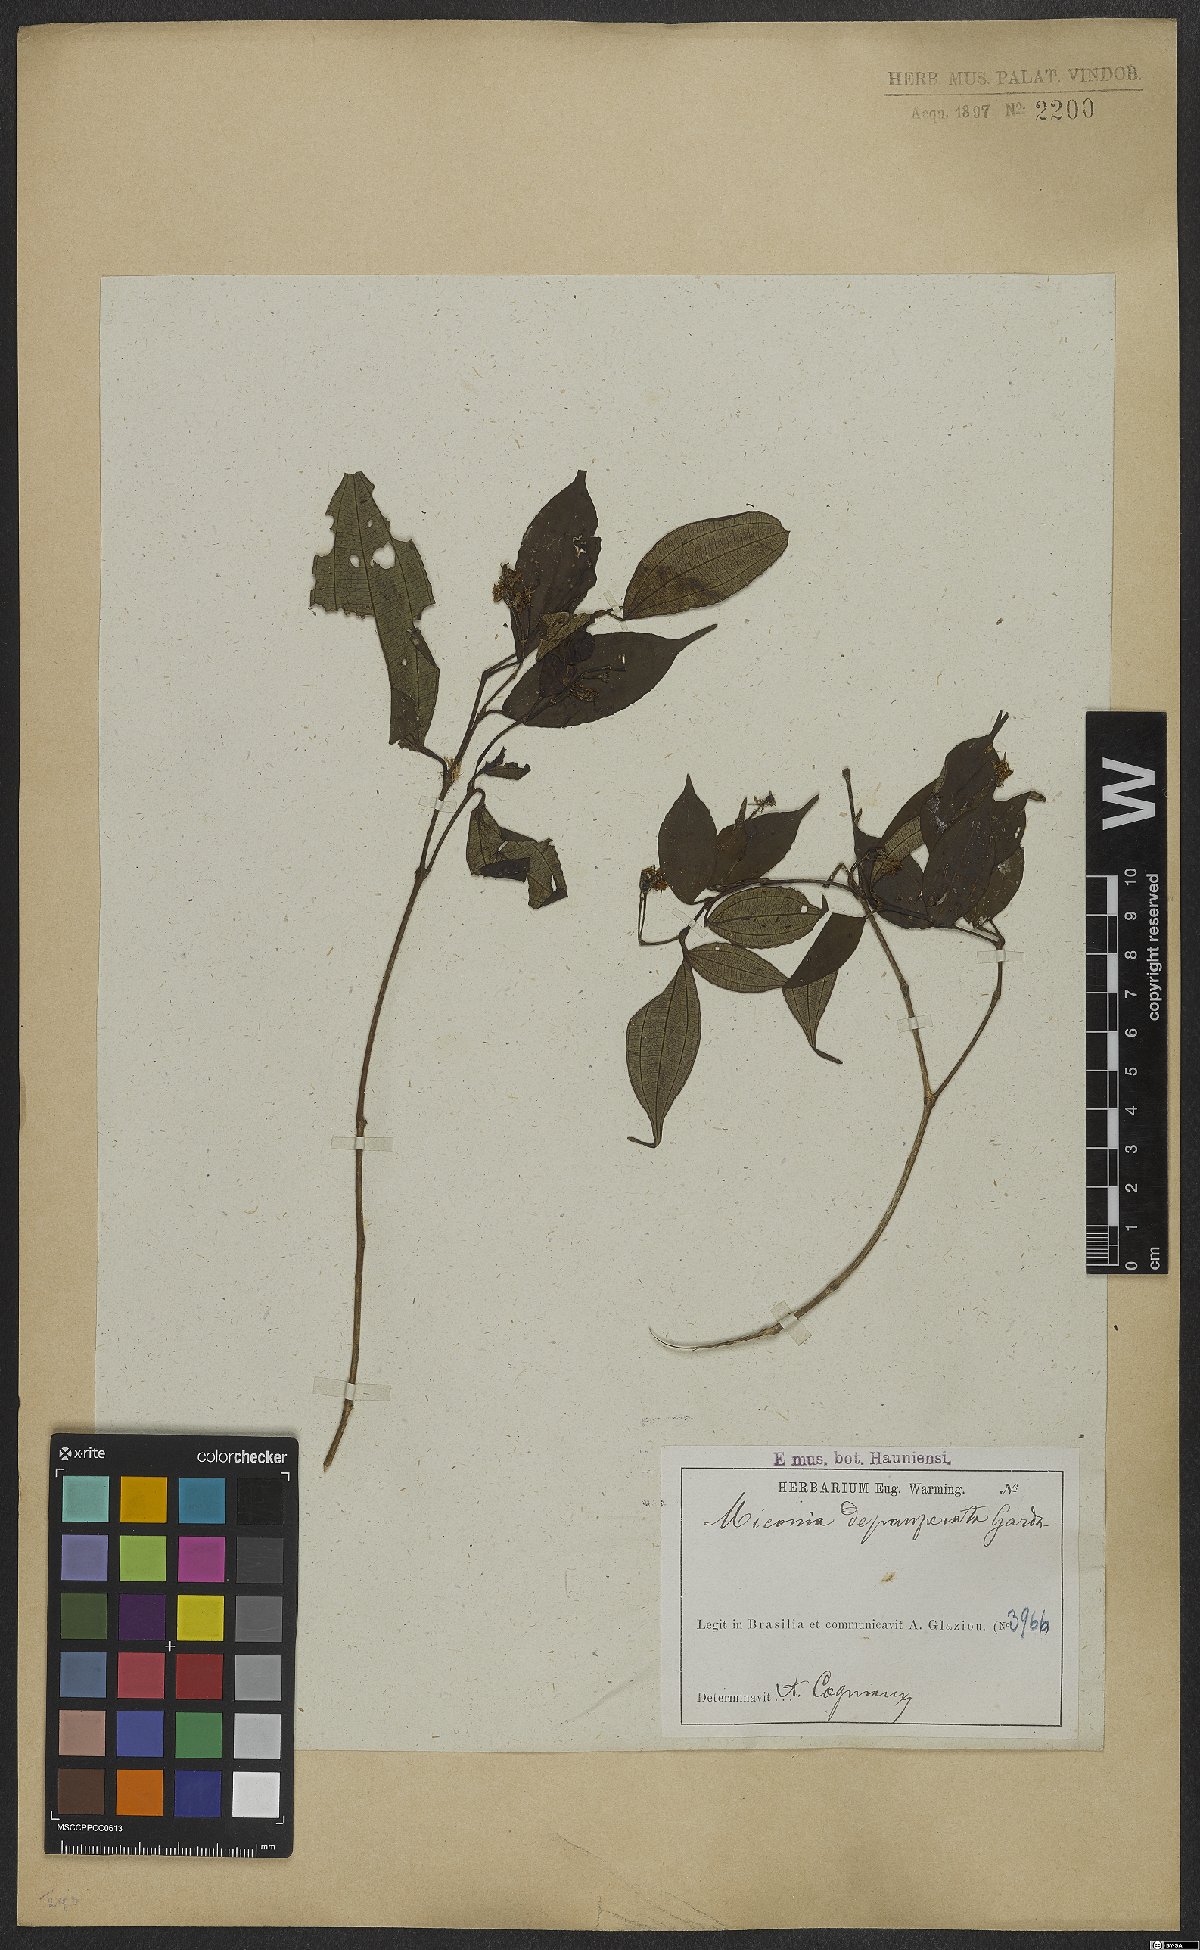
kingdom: Plantae
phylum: Tracheophyta
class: Magnoliopsida
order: Myrtales
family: Melastomataceae
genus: Miconia
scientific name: Miconia depauperata
